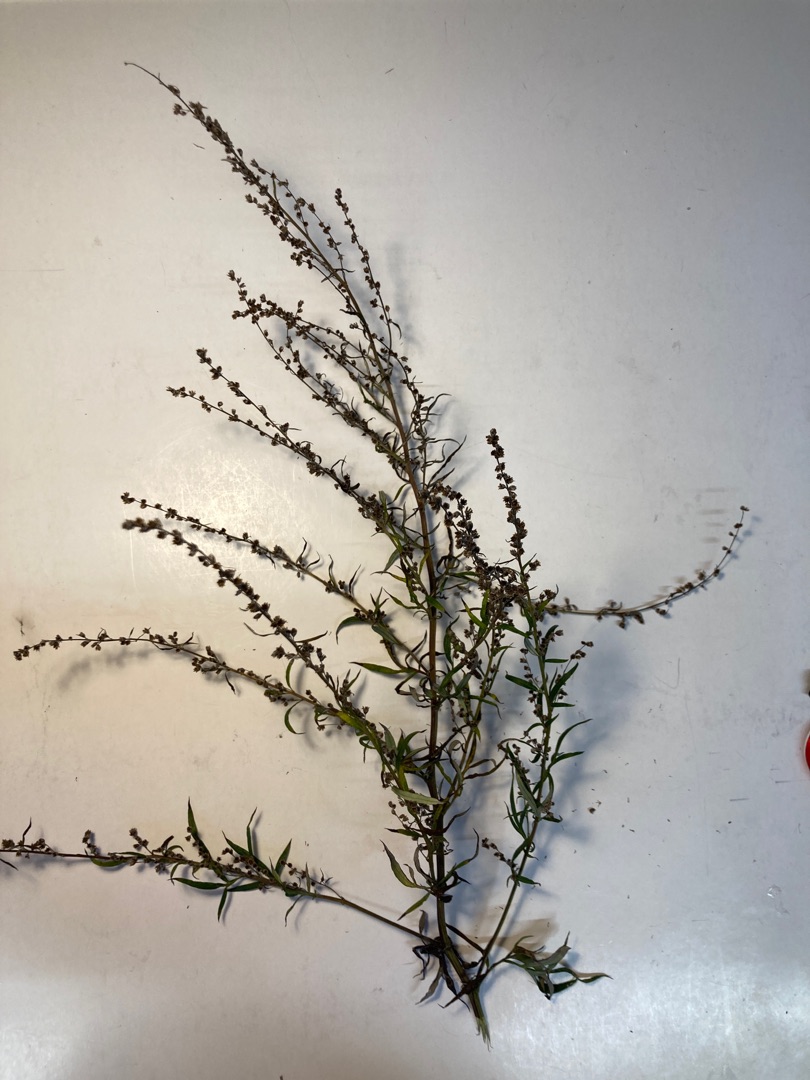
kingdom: Plantae
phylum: Tracheophyta
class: Magnoliopsida
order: Asterales
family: Asteraceae
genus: Artemisia
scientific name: Artemisia vulgaris
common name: Grå-bynke
